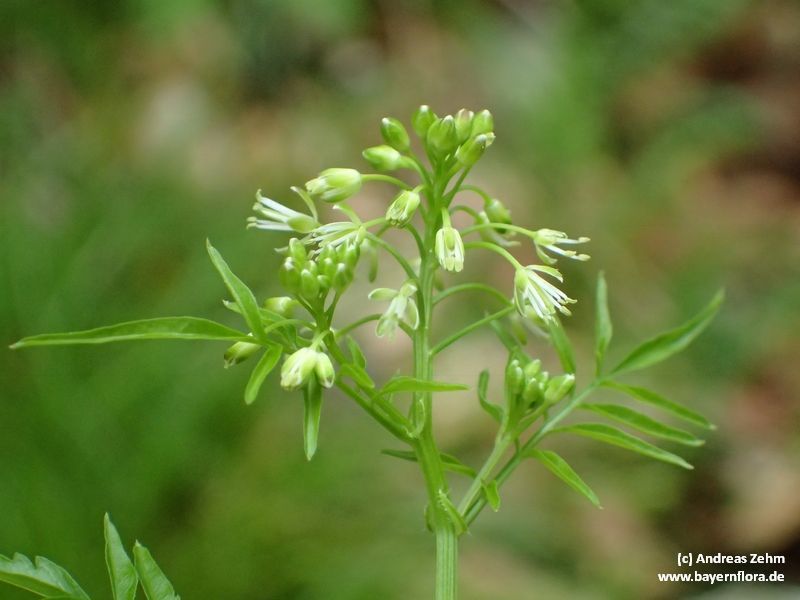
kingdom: Plantae
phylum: Tracheophyta
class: Magnoliopsida
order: Brassicales
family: Brassicaceae
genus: Cardamine
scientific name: Cardamine impatiens
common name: Narrow-leaved bitter-cress
